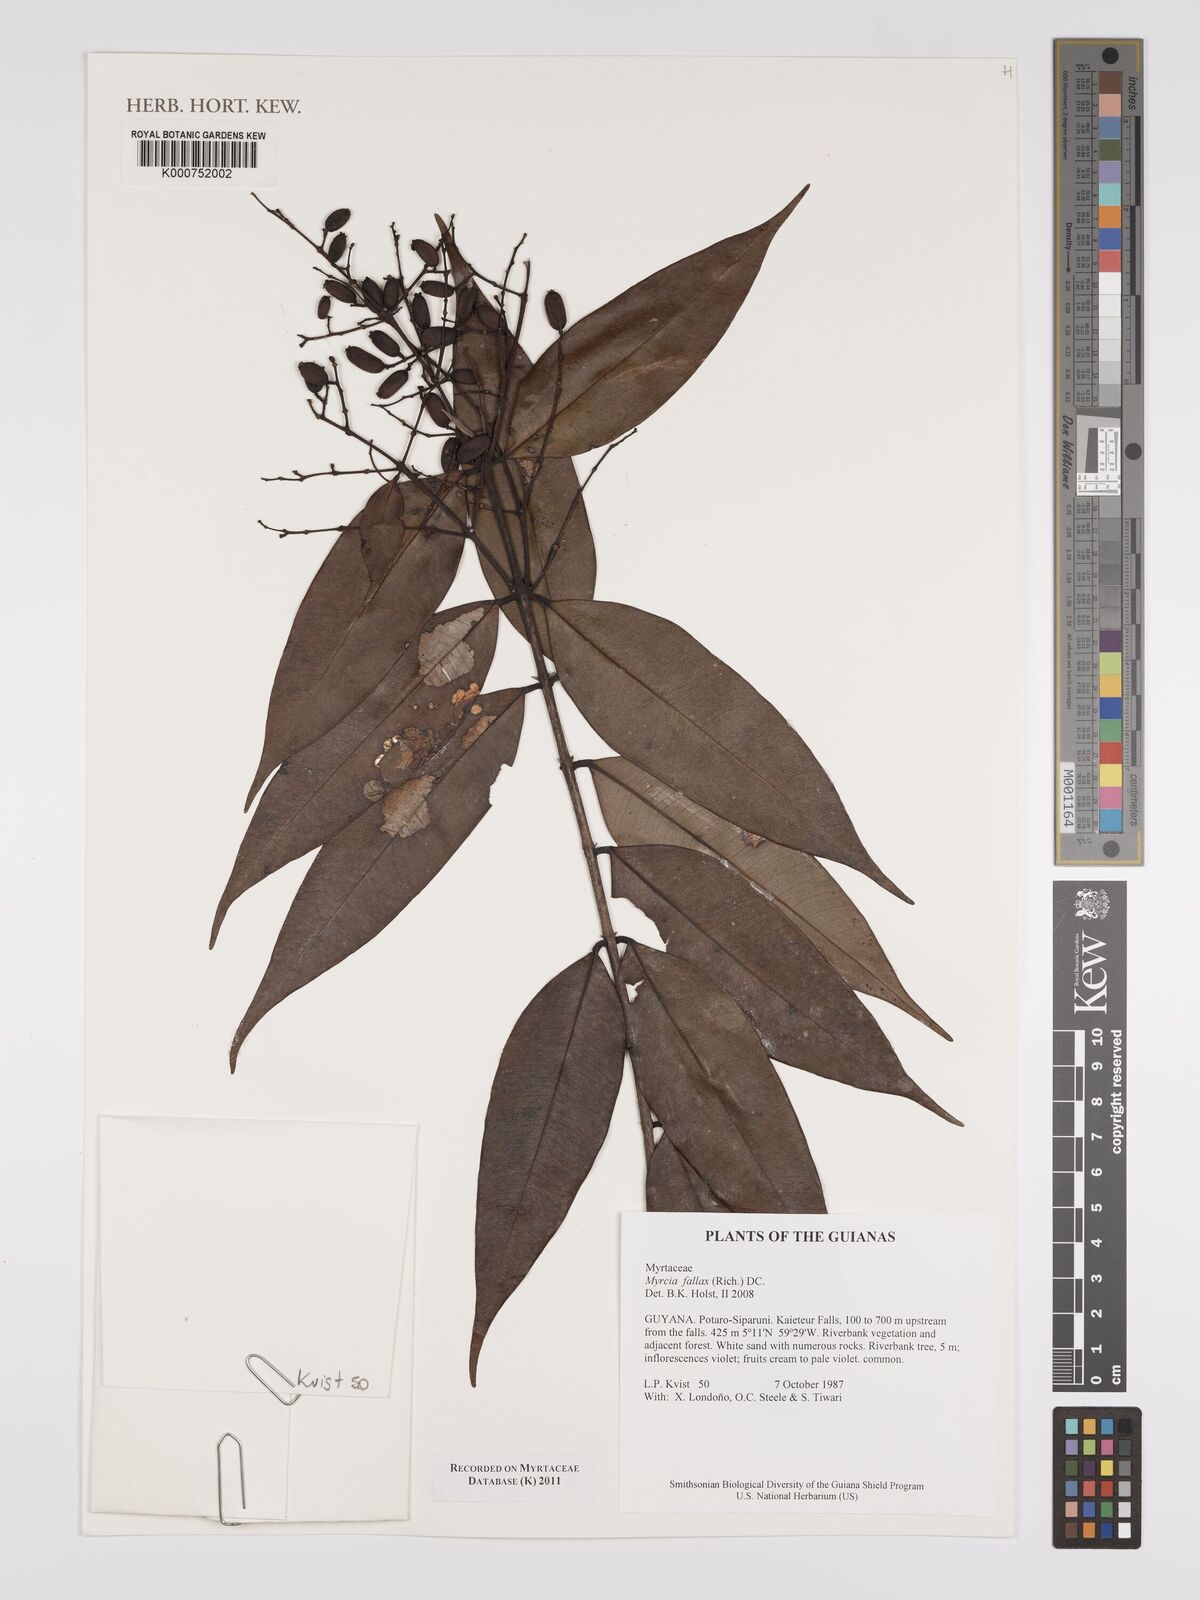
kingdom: Plantae
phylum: Tracheophyta
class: Magnoliopsida
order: Myrtales
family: Myrtaceae
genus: Myrcia
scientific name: Myrcia splendens
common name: Surinam cherry
